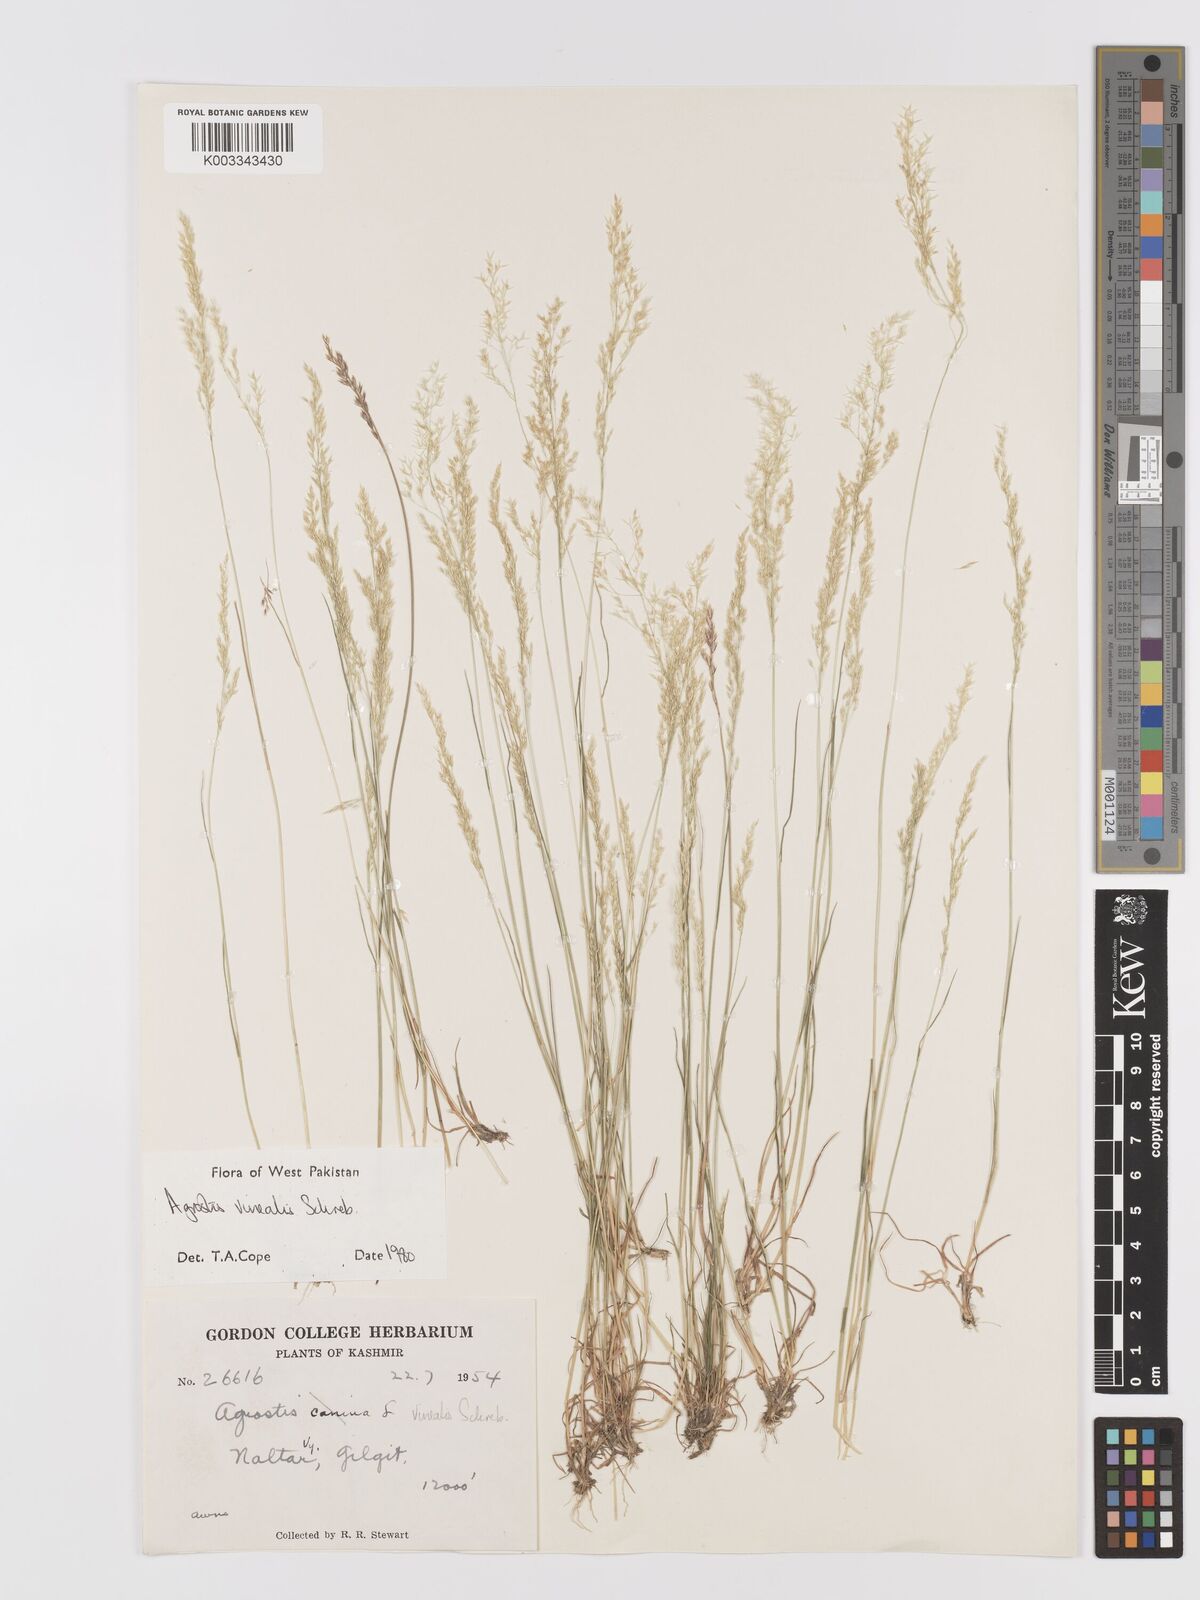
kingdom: Plantae
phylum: Tracheophyta
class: Liliopsida
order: Poales
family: Poaceae
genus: Agrostis
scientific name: Agrostis vinealis
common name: Brown bent
